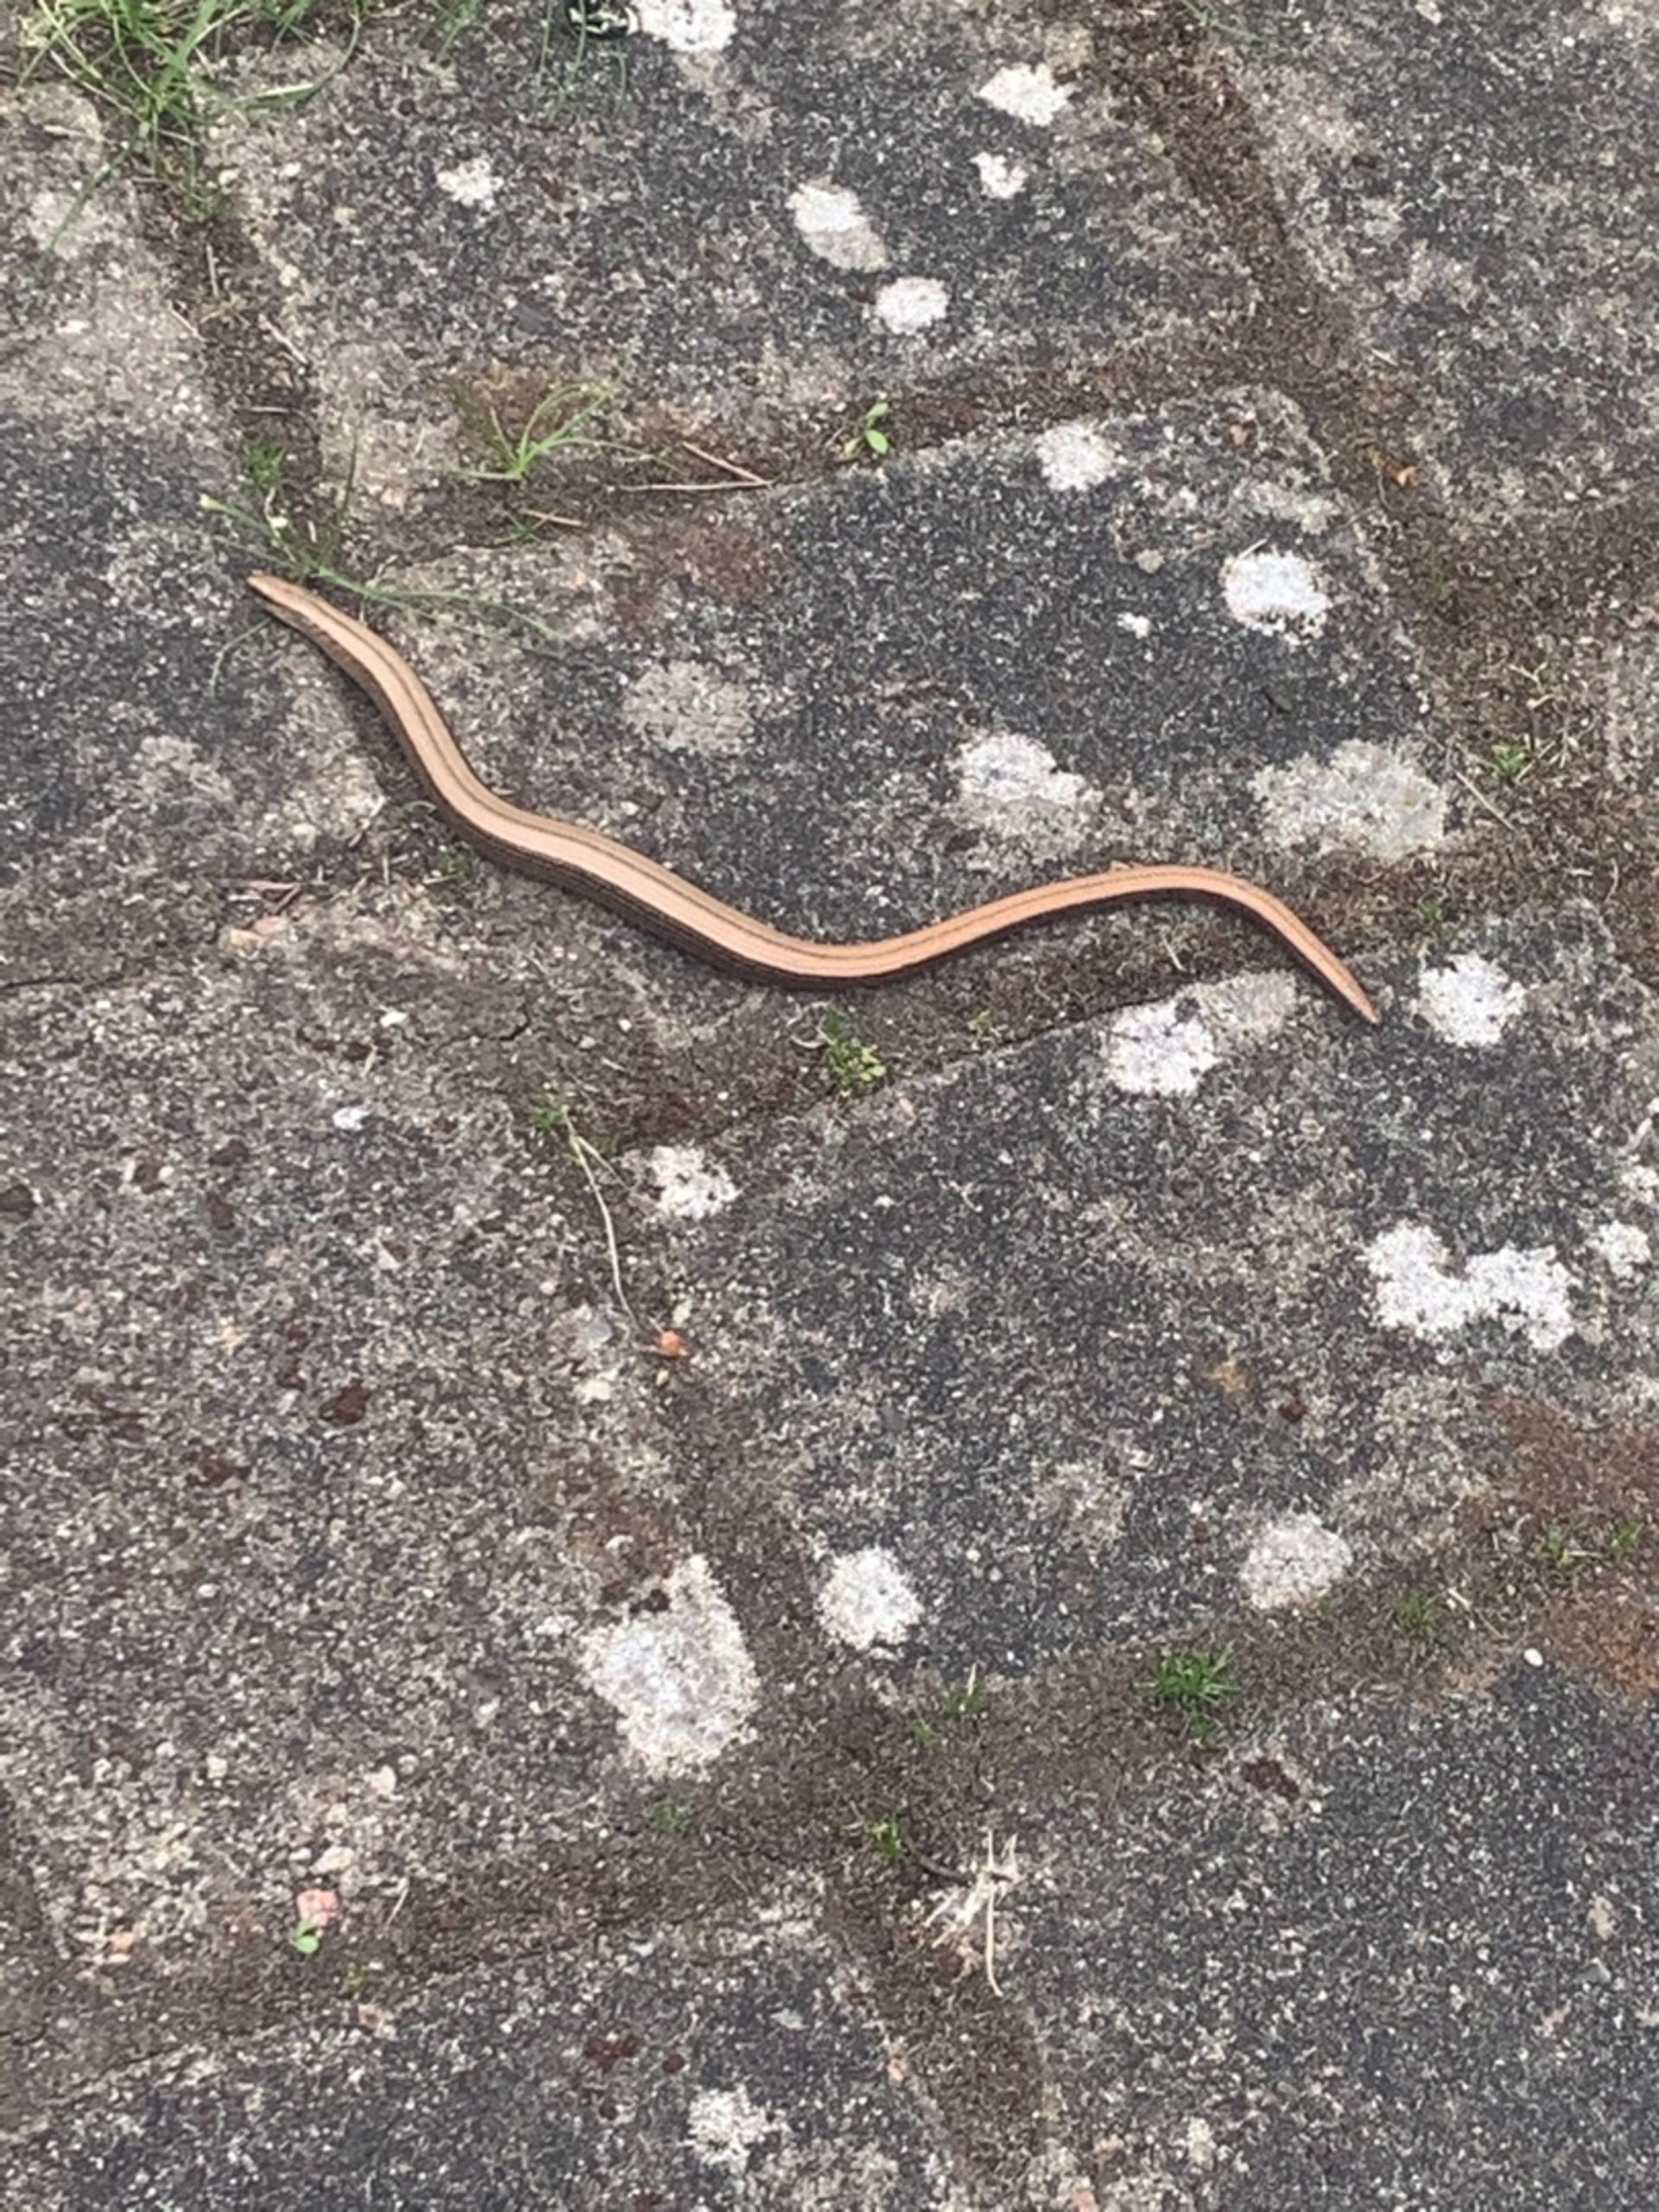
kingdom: Animalia
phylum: Chordata
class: Squamata
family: Anguidae
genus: Anguis
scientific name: Anguis fragilis
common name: Stålorm
